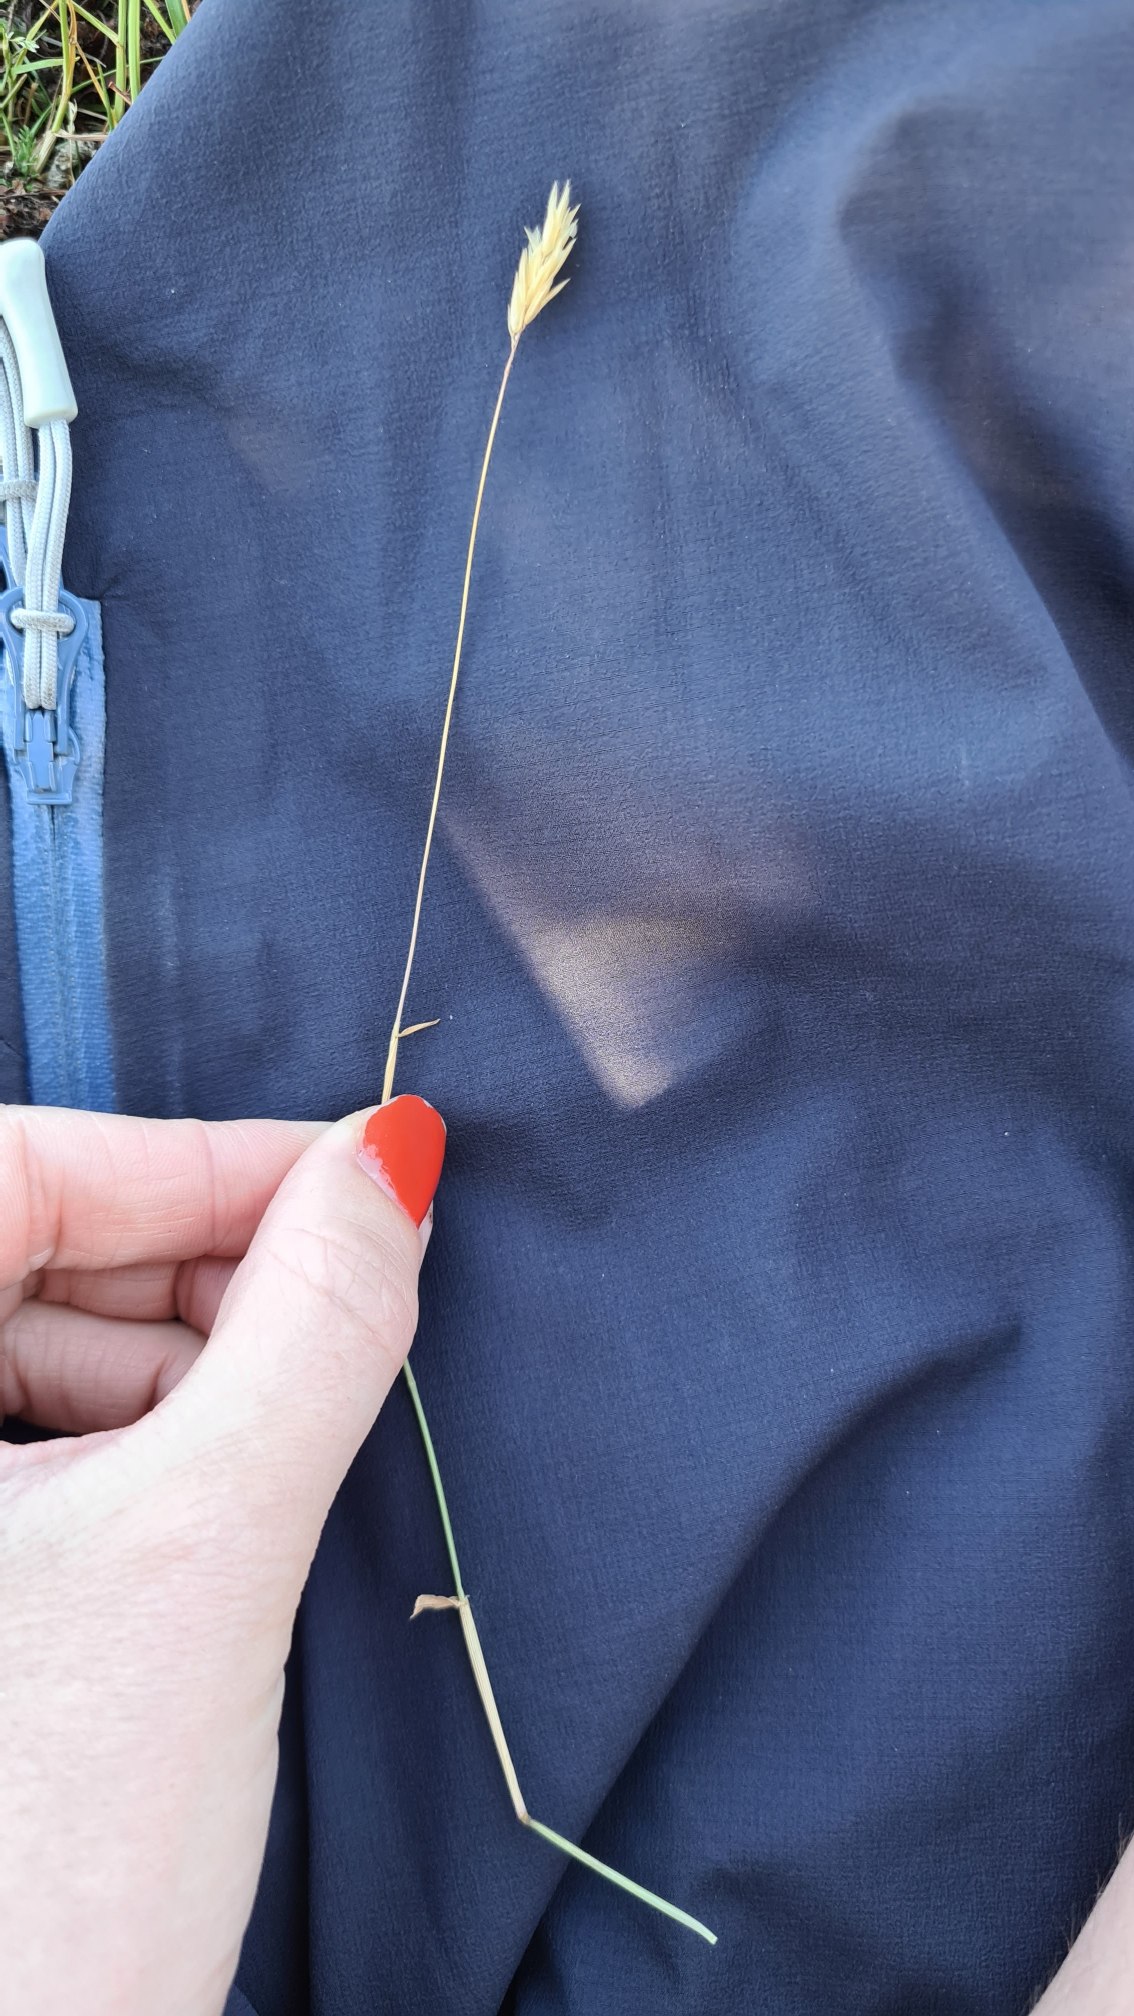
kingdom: Plantae
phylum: Tracheophyta
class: Liliopsida
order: Poales
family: Poaceae
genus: Anthoxanthum
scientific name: Anthoxanthum odoratum
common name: Vellugtende gulaks
